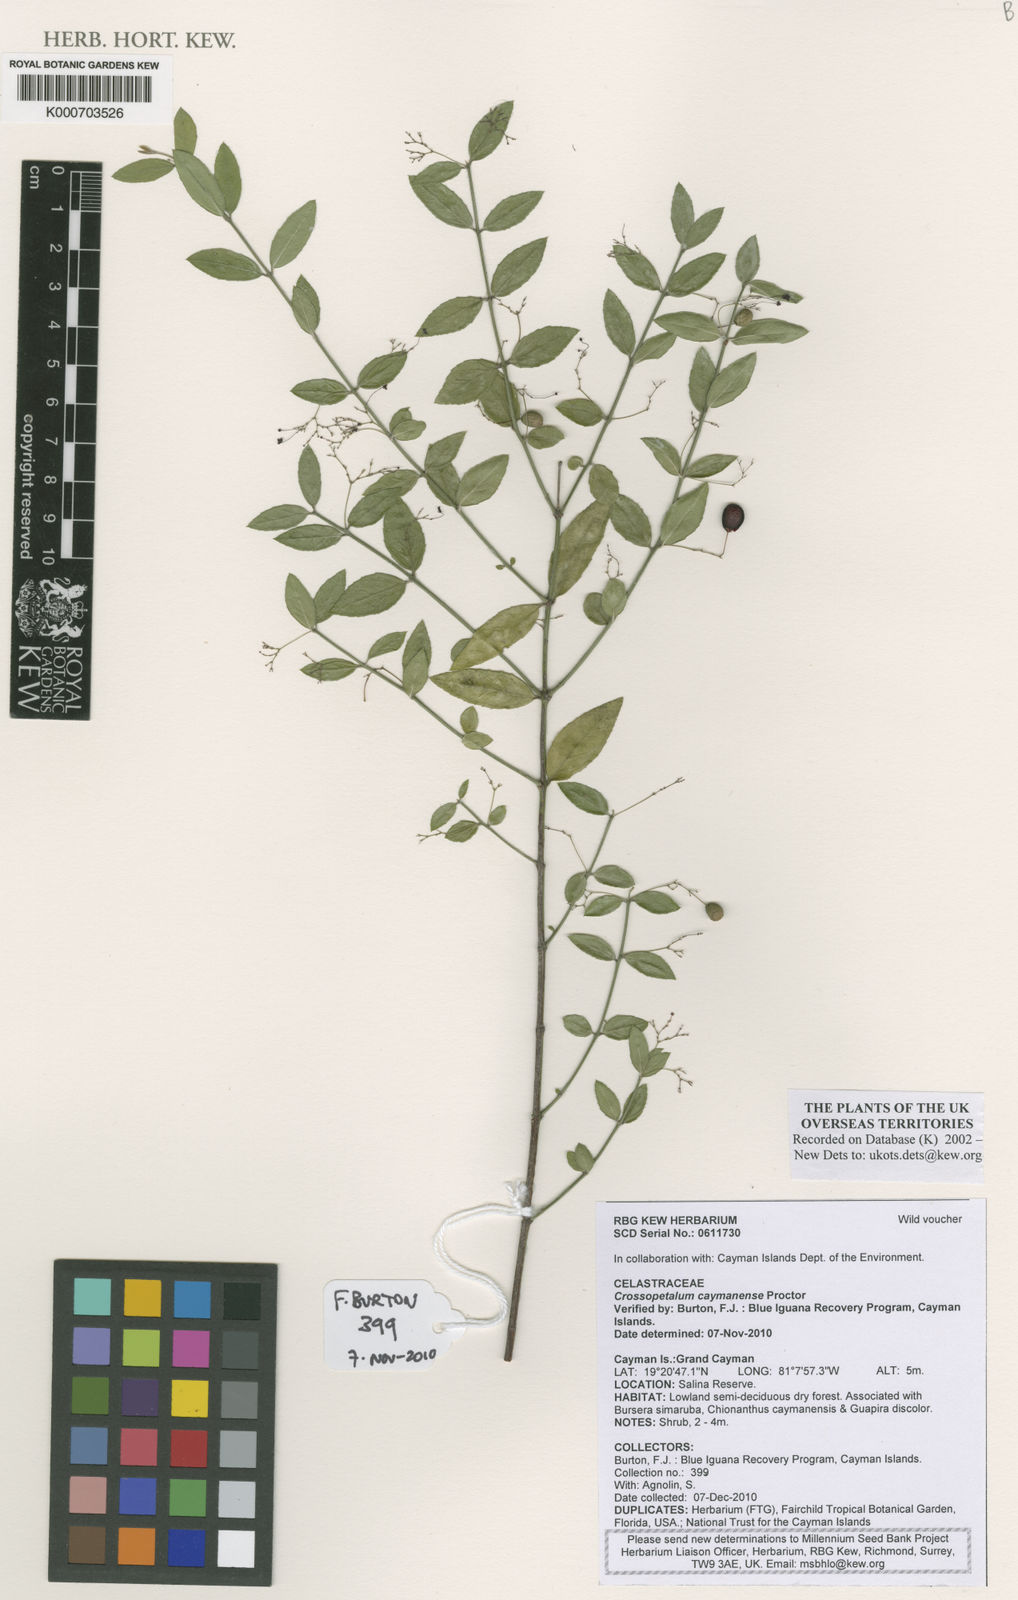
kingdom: Plantae
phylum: Tracheophyta
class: Magnoliopsida
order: Celastrales
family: Celastraceae
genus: Crossopetalum
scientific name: Crossopetalum uragoga
